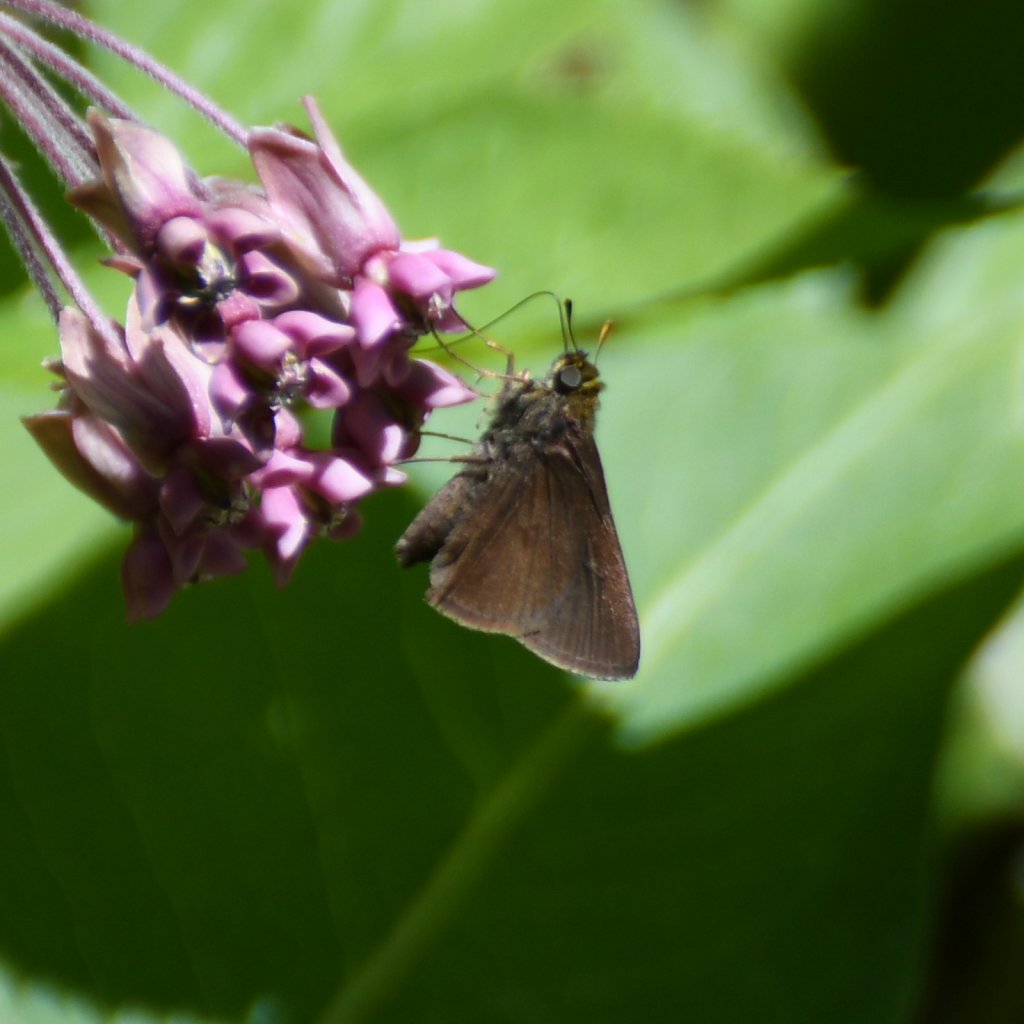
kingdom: Animalia
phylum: Arthropoda
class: Insecta
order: Lepidoptera
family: Hesperiidae
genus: Euphyes
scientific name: Euphyes vestris
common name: Dun Skipper
